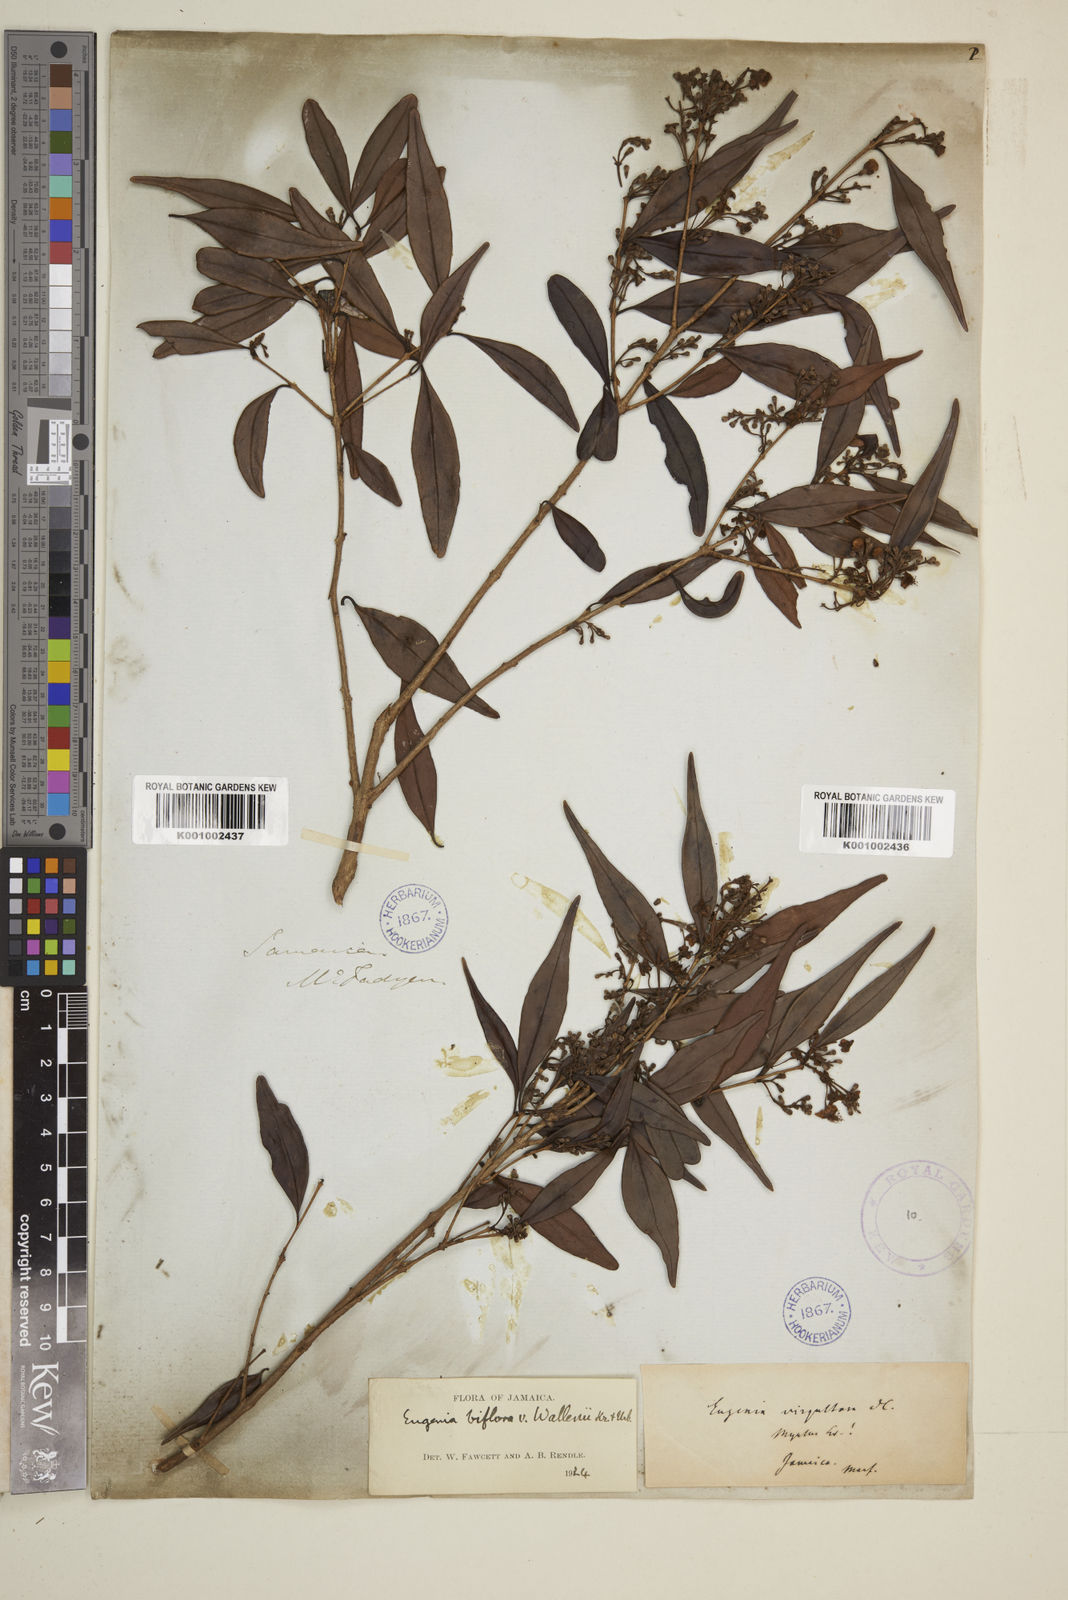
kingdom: Plantae
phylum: Tracheophyta
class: Magnoliopsida
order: Myrtales
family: Myrtaceae
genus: Eugenia
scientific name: Eugenia biflora
